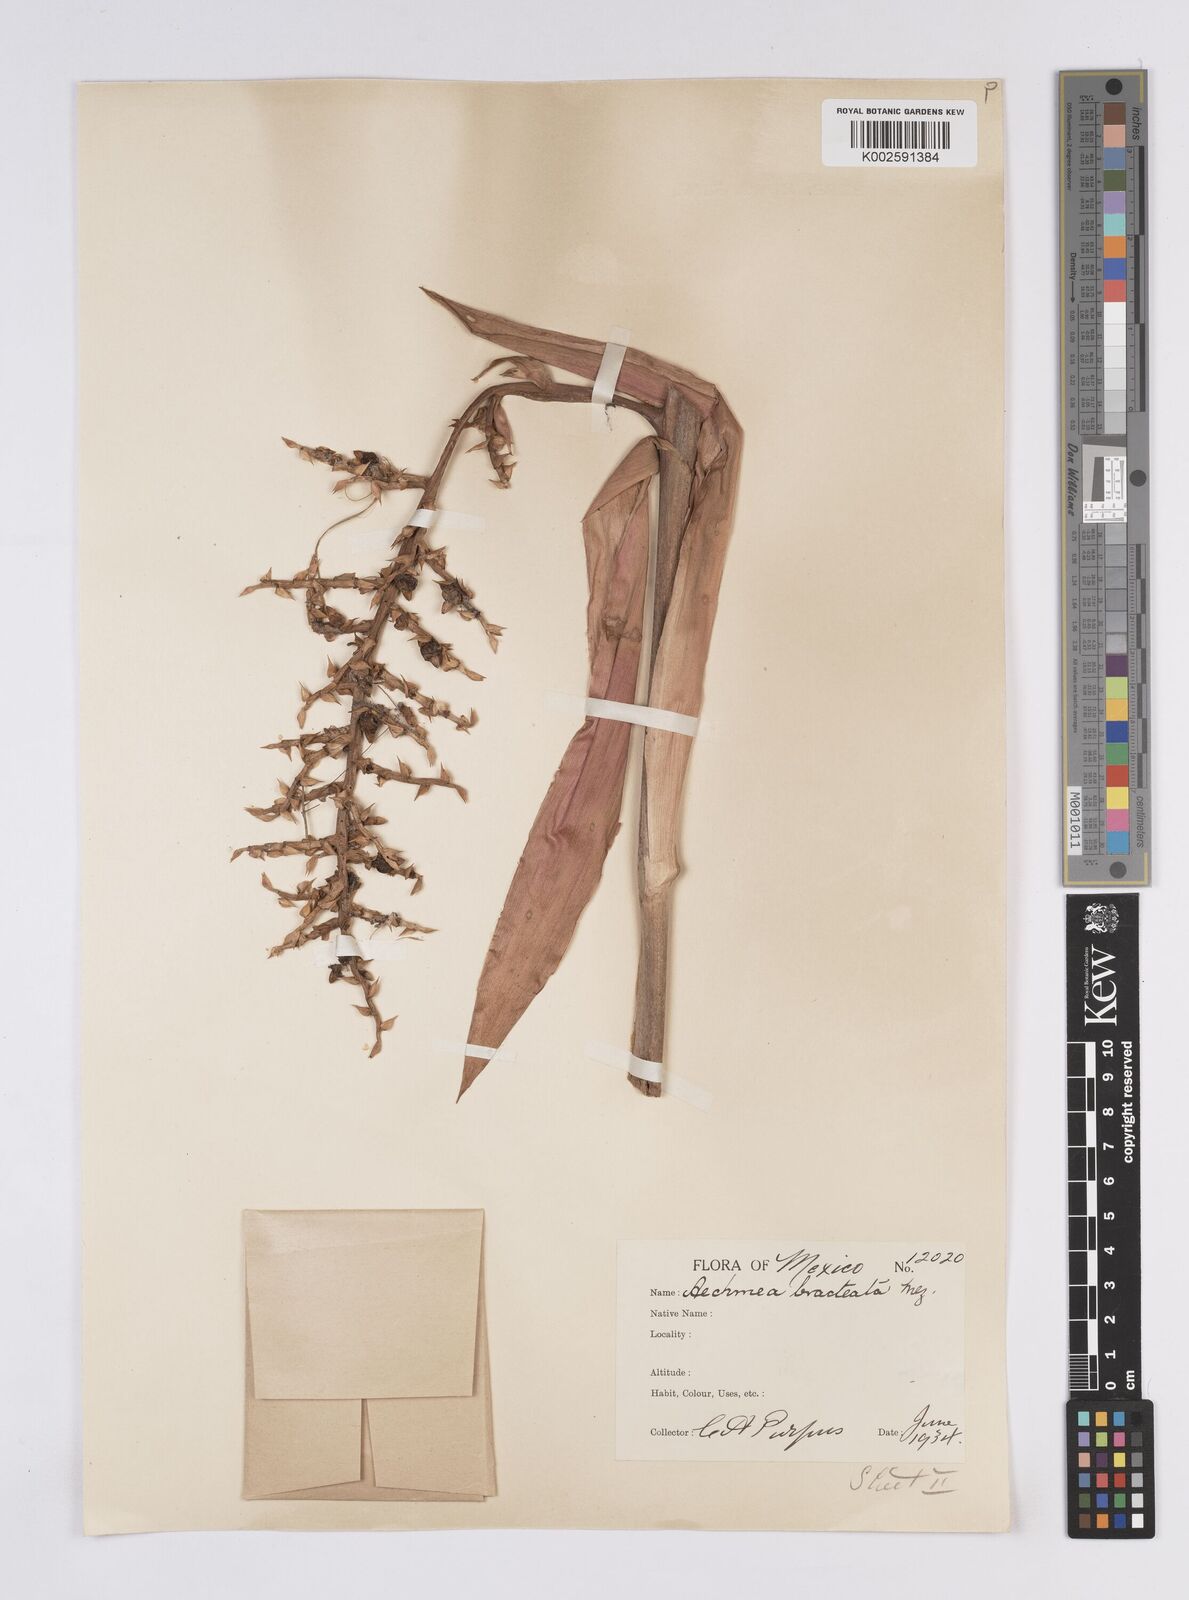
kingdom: Plantae
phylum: Tracheophyta
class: Liliopsida
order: Poales
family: Bromeliaceae
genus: Aechmea
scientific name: Aechmea bracteata
